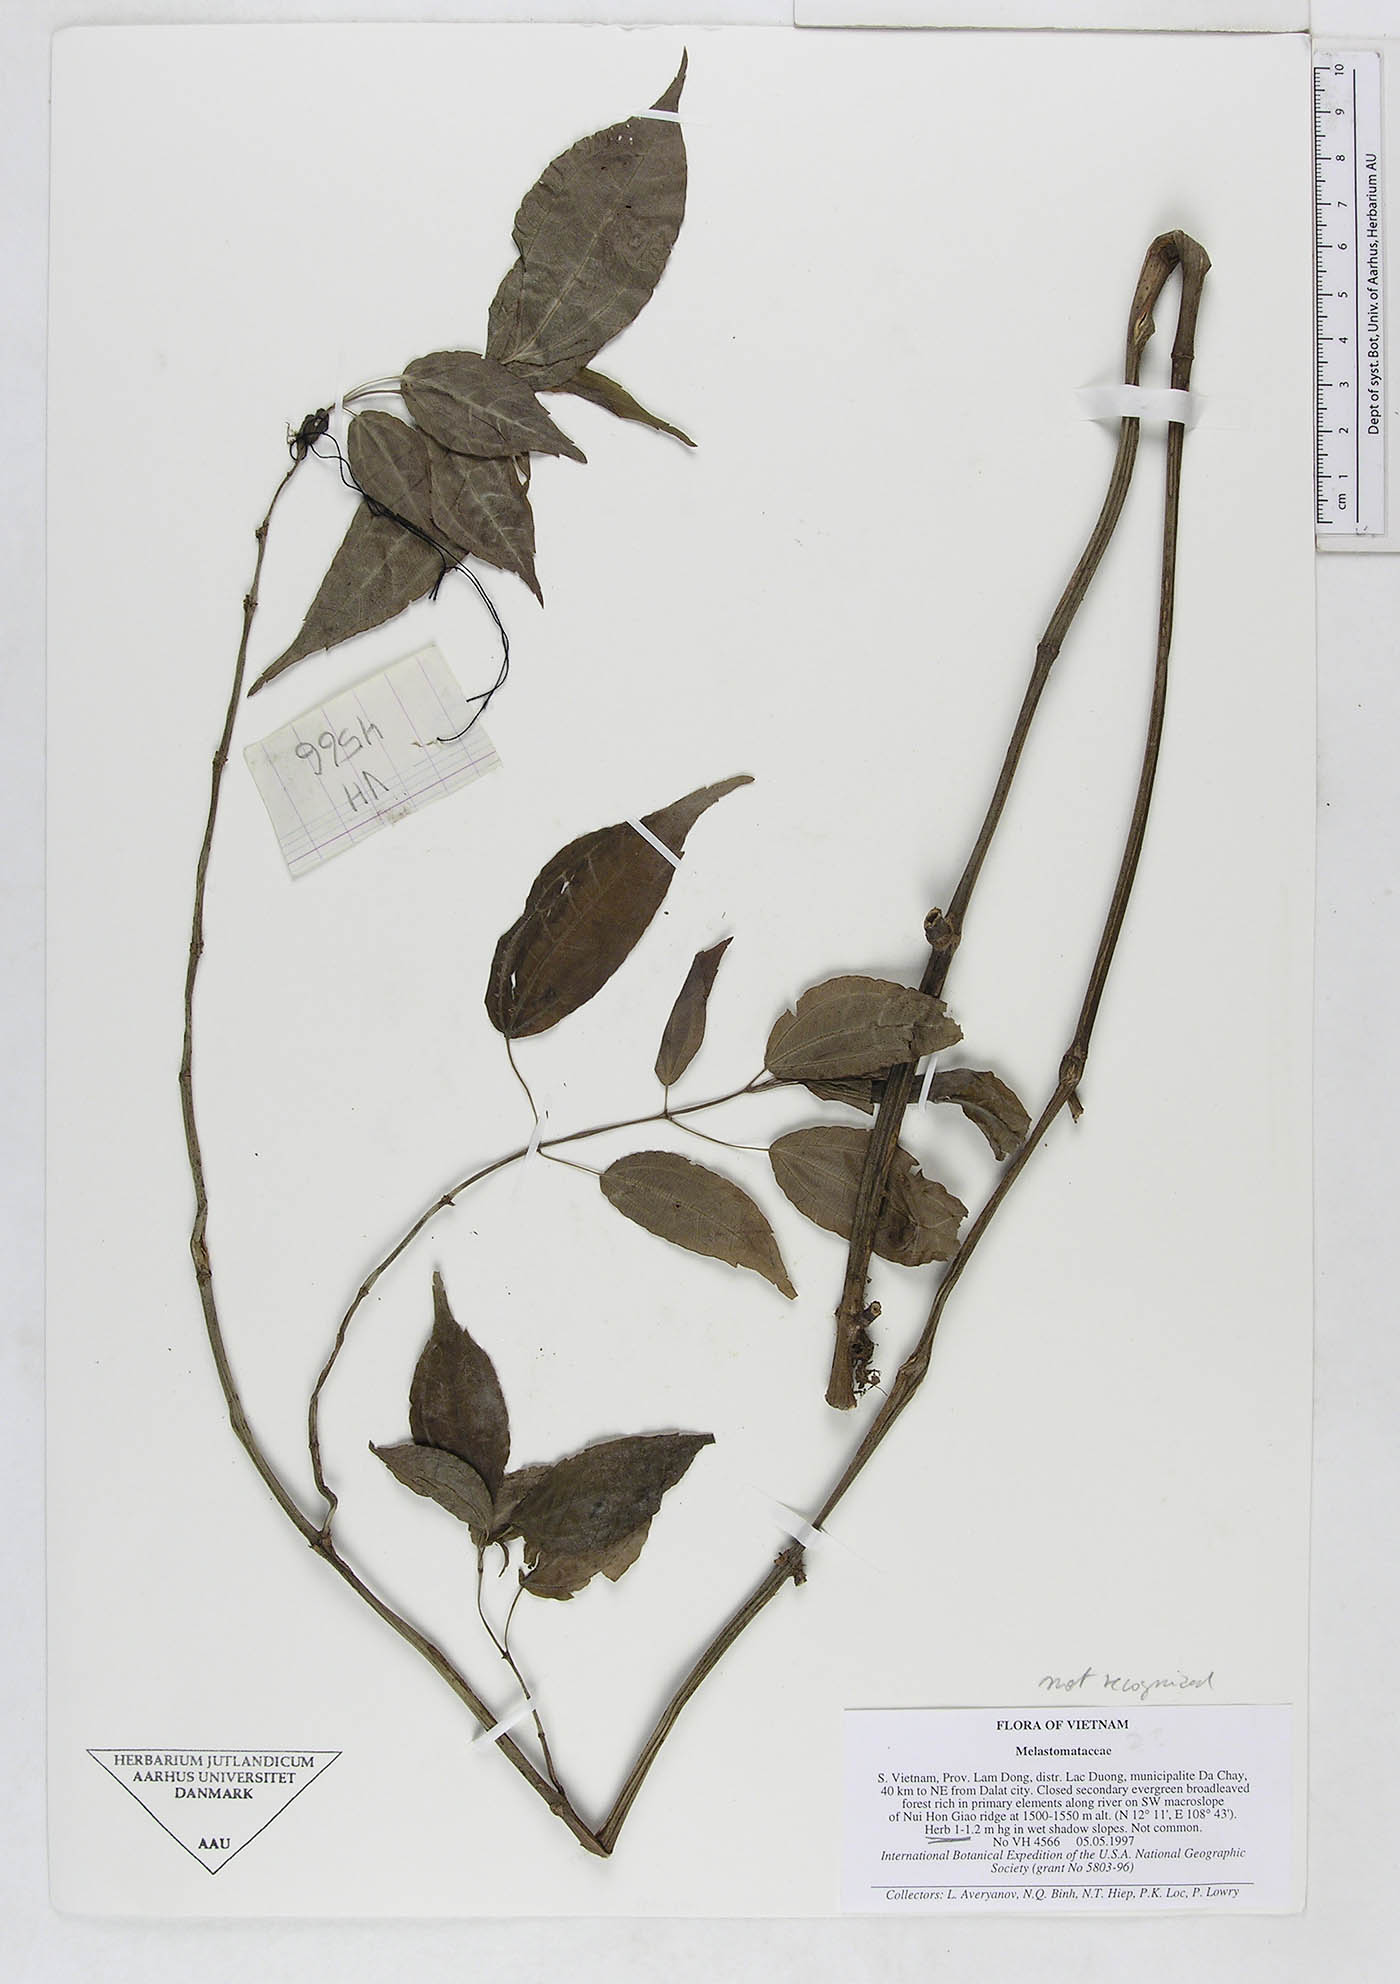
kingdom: Plantae
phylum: Tracheophyta
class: Magnoliopsida
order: Rosales
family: Urticaceae
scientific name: Urticaceae
